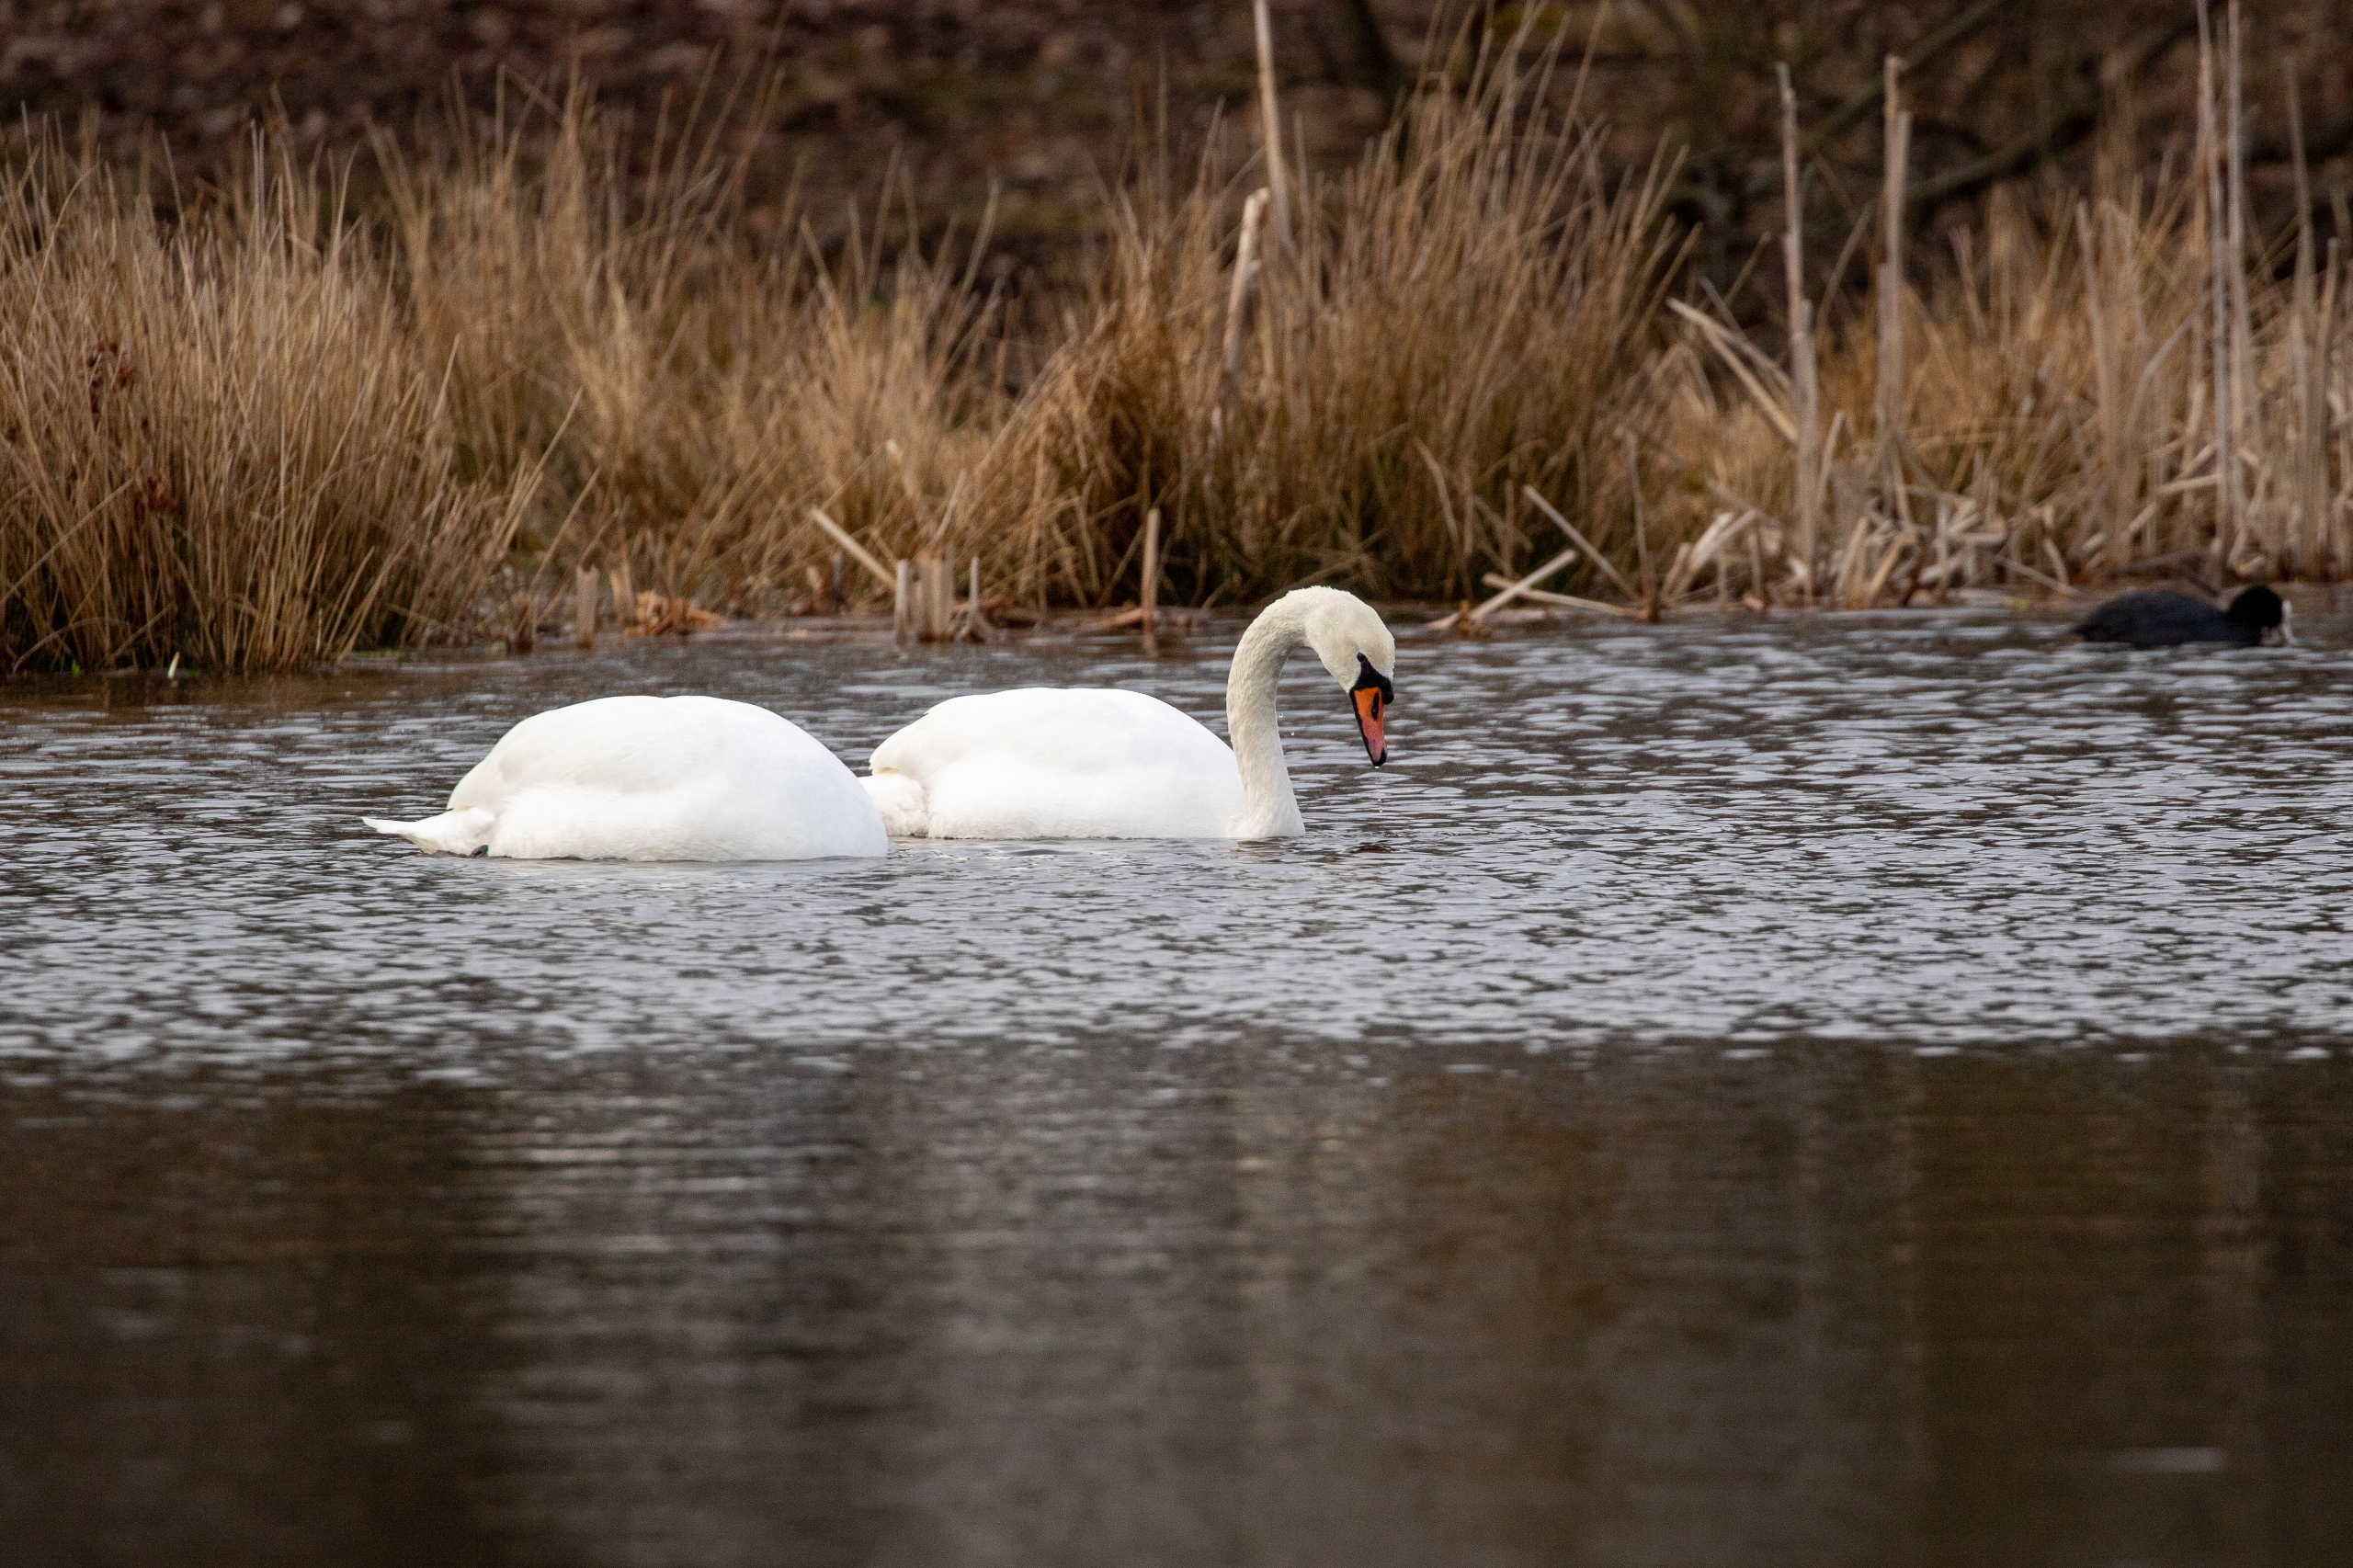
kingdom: Animalia
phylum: Chordata
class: Aves
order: Anseriformes
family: Anatidae
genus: Cygnus
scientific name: Cygnus olor
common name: Knopsvane
